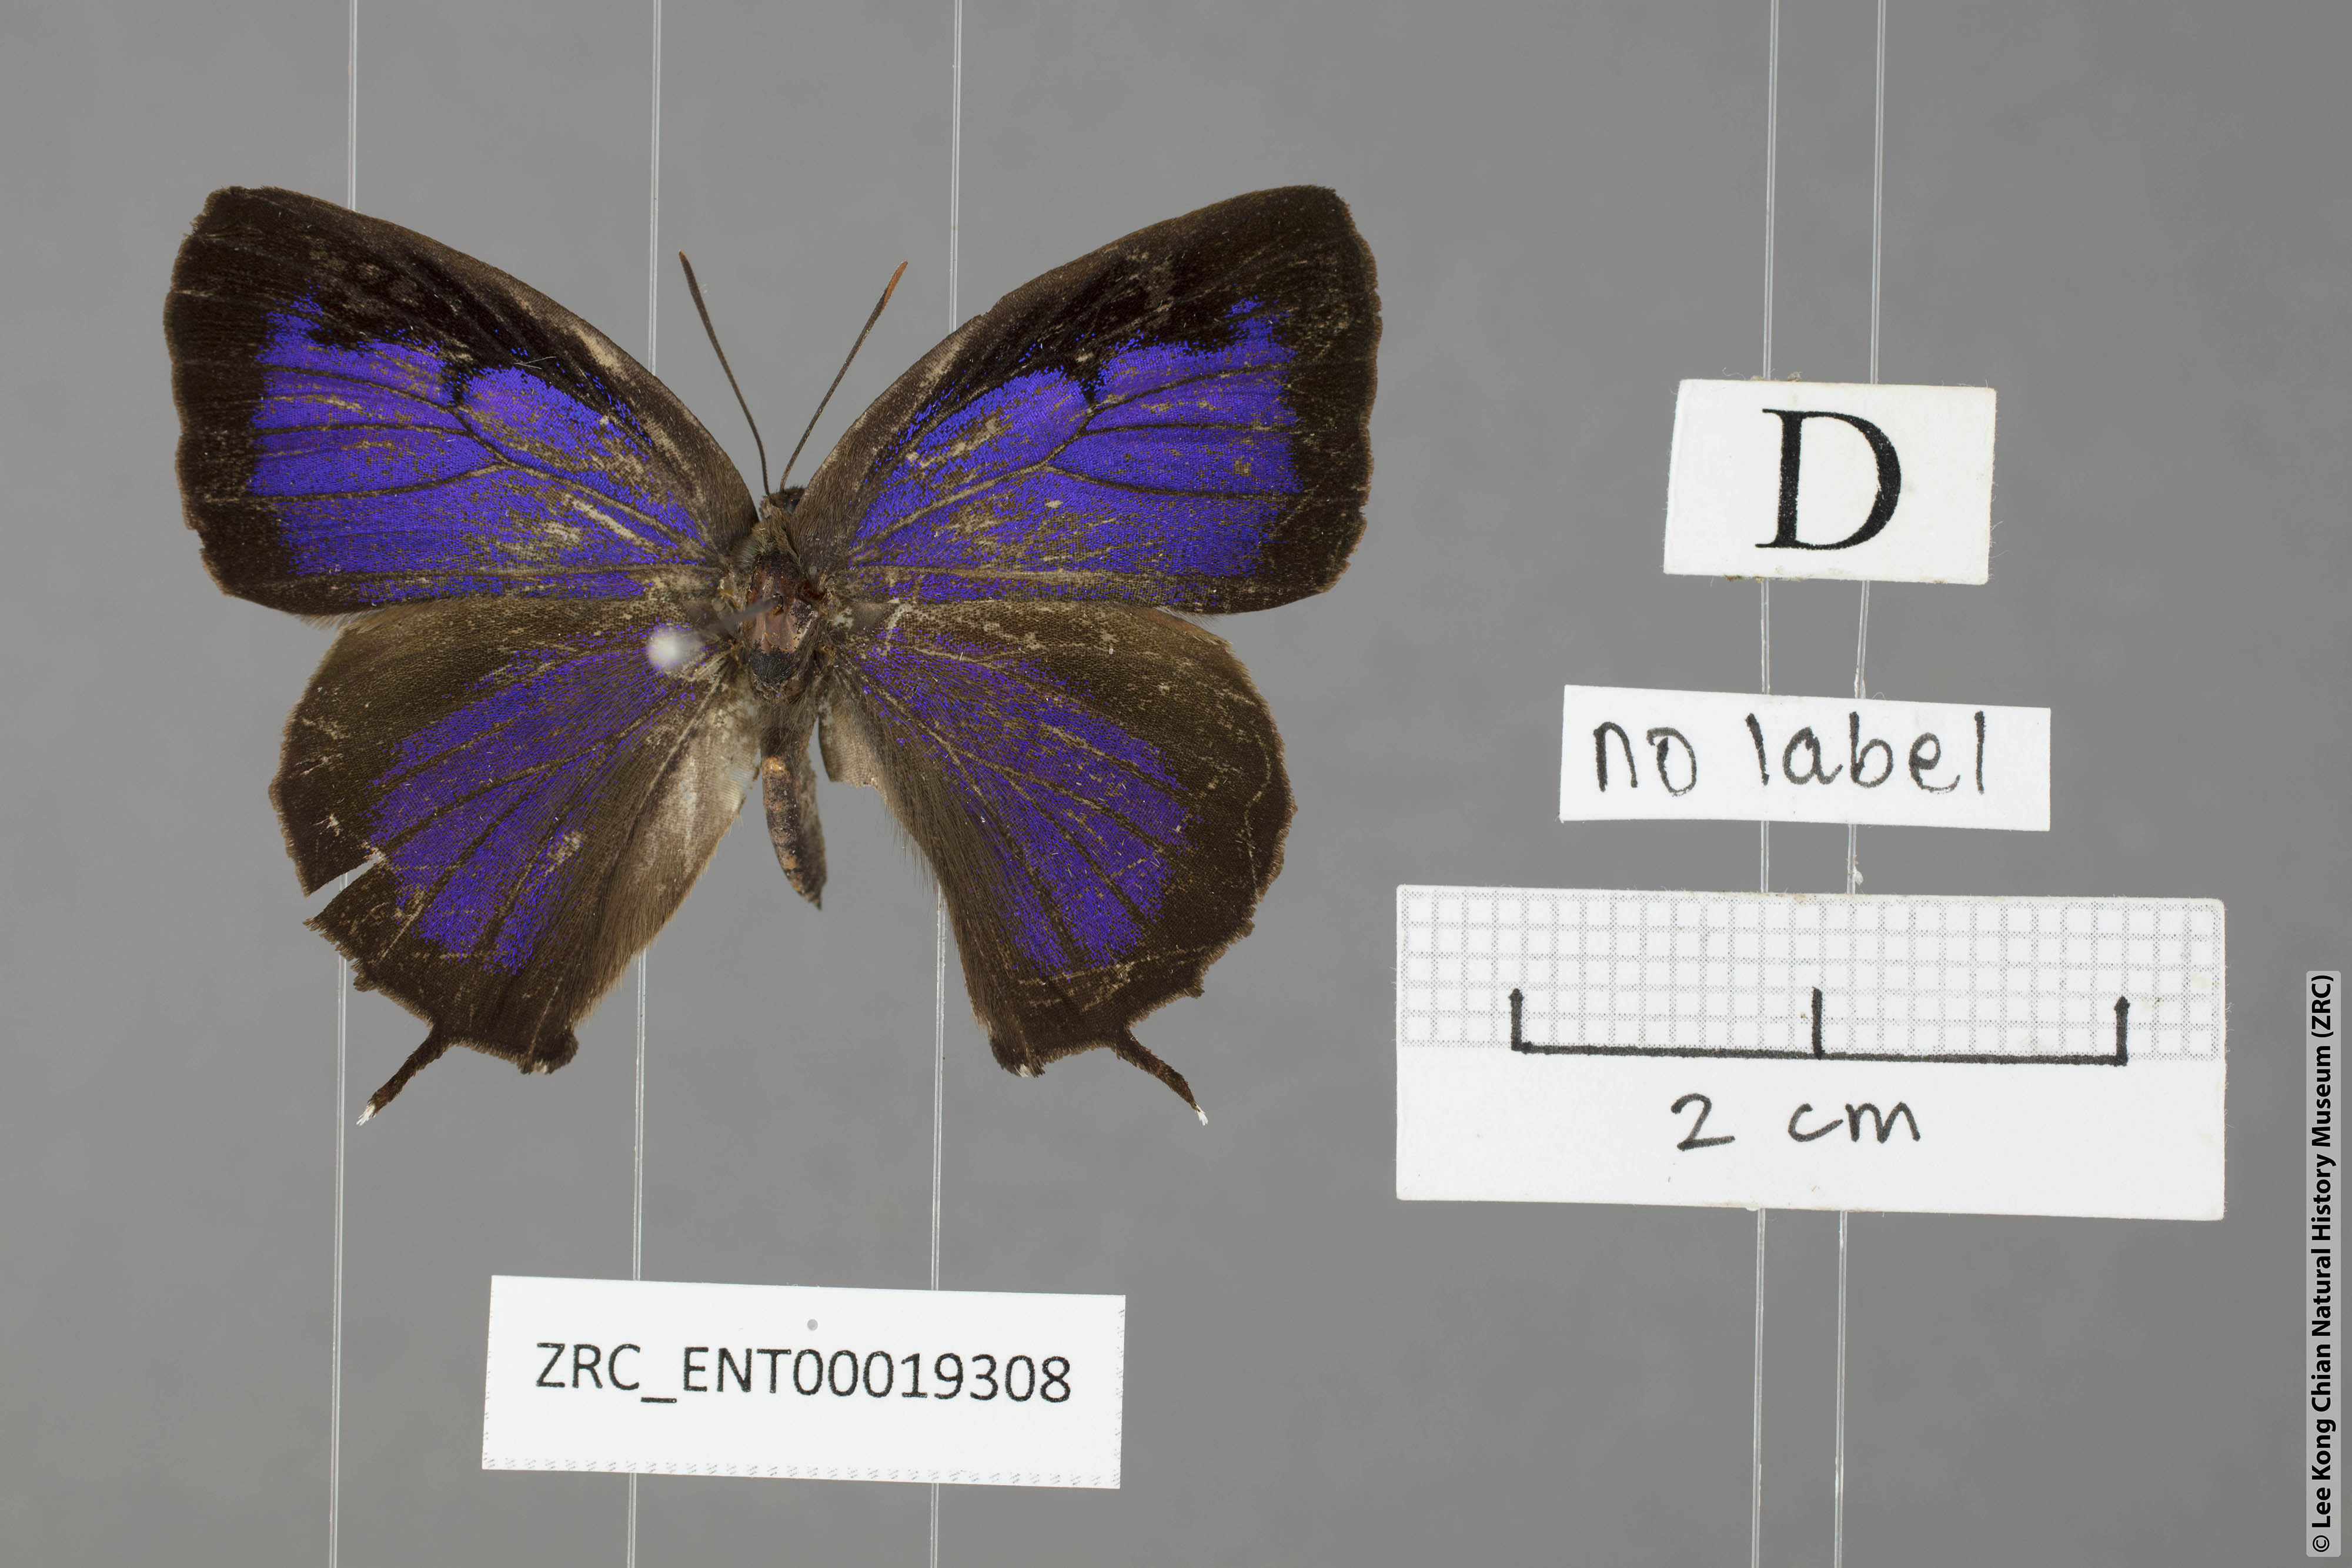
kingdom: Animalia
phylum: Arthropoda
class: Insecta
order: Lepidoptera
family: Lycaenidae
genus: Arhopala
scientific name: Arhopala bazalus
